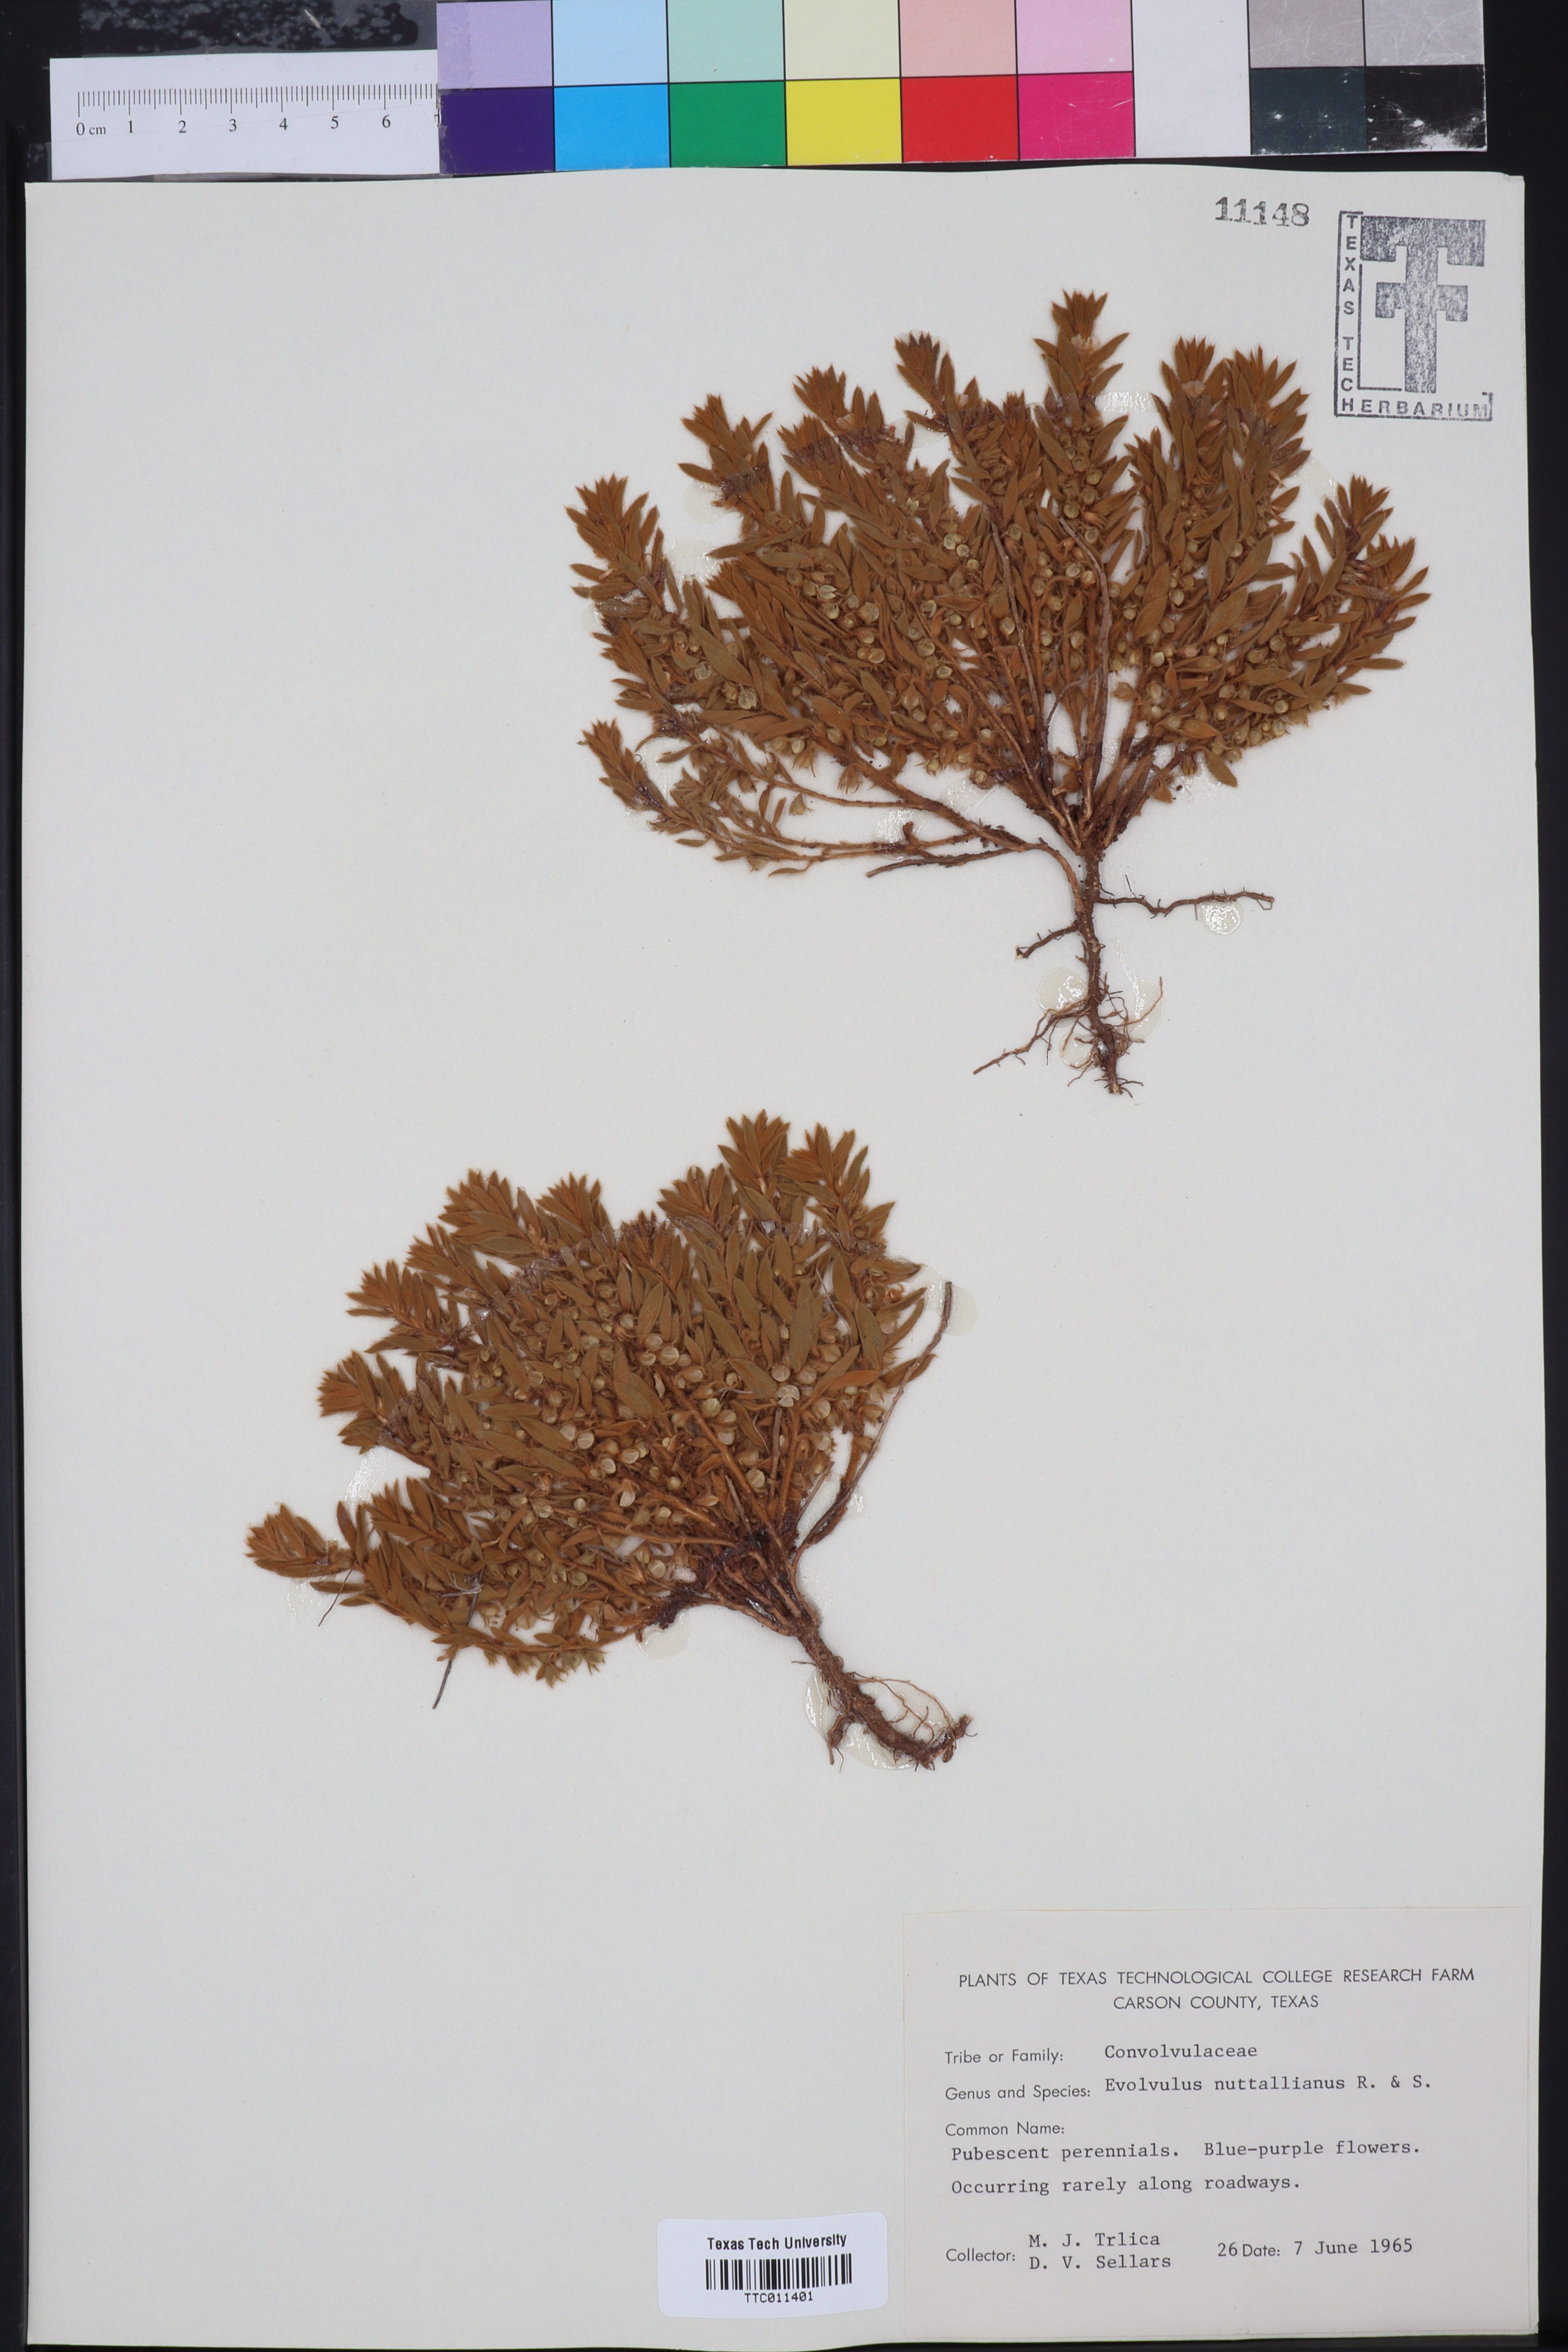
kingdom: Plantae
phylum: Tracheophyta
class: Magnoliopsida
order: Solanales
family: Convolvulaceae
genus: Evolvulus
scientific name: Evolvulus nuttallianus
